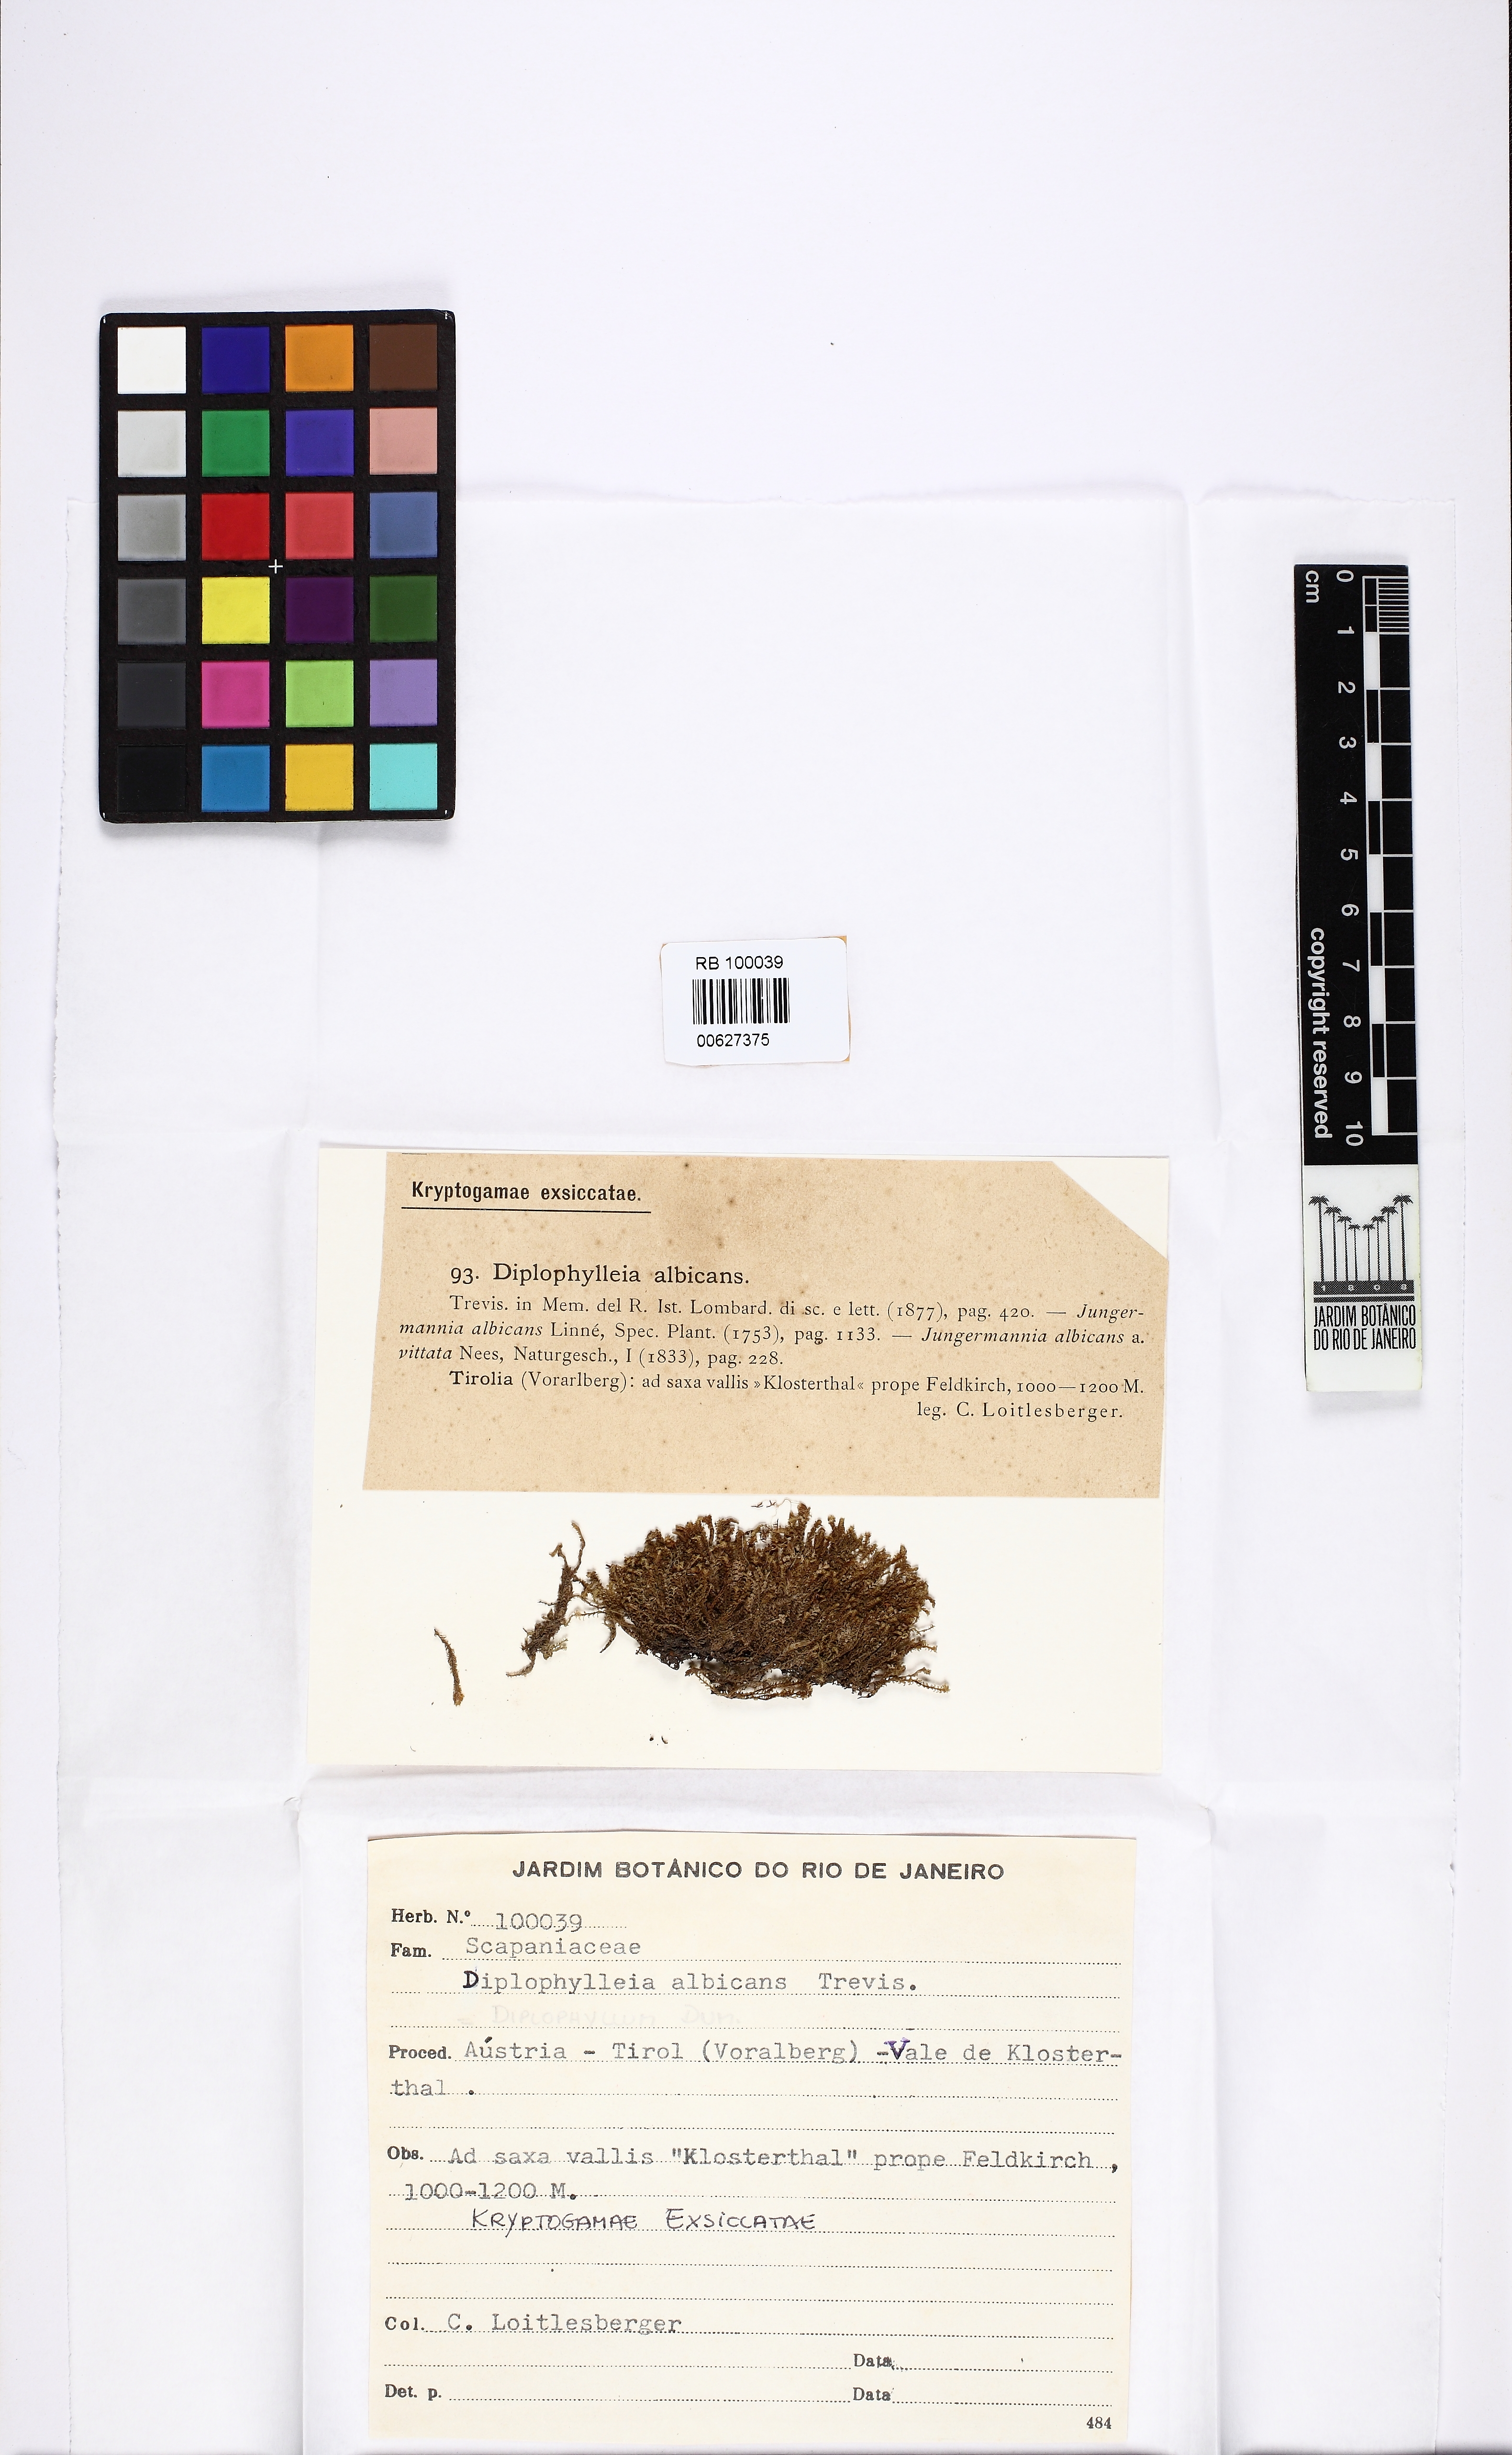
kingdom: Plantae
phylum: Marchantiophyta
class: Jungermanniopsida
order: Jungermanniales
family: Scapaniaceae
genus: Diplophyllum
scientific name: Diplophyllum albicans
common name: White earwort
